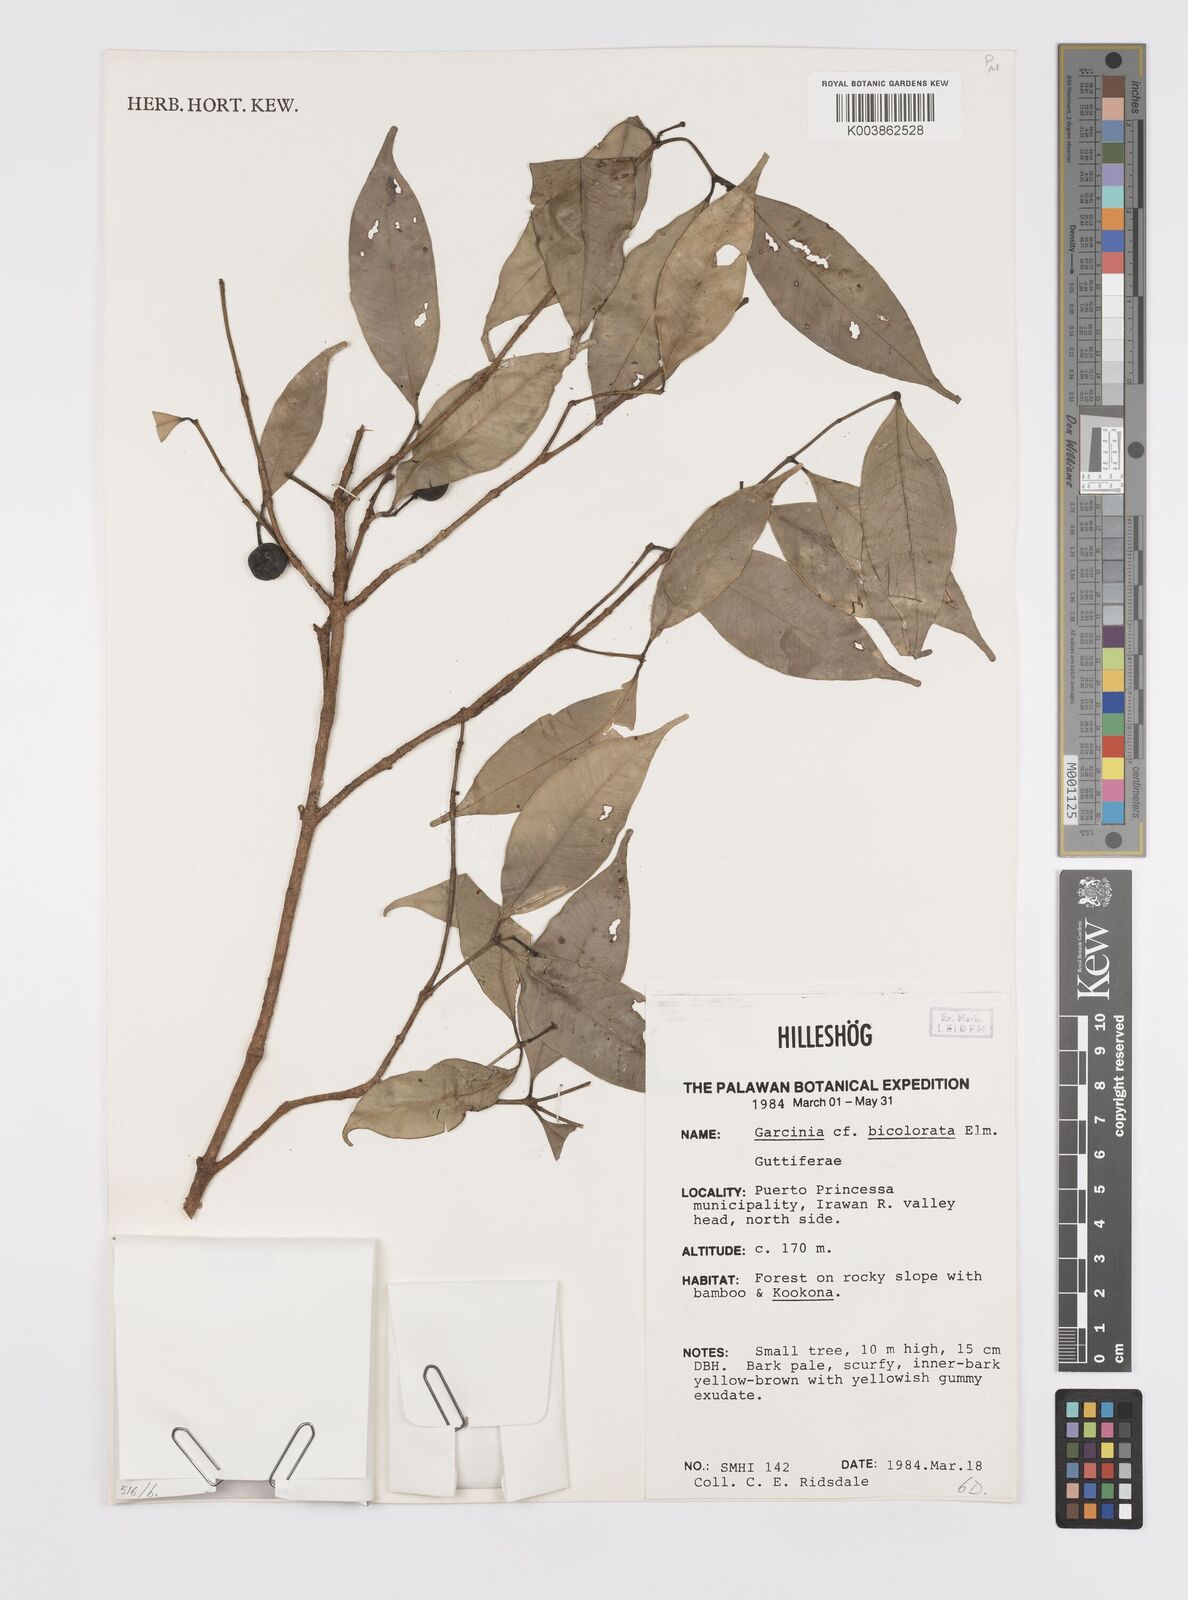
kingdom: Plantae
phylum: Tracheophyta
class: Magnoliopsida
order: Malpighiales
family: Clusiaceae
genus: Garcinia
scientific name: Garcinia bicolorata
